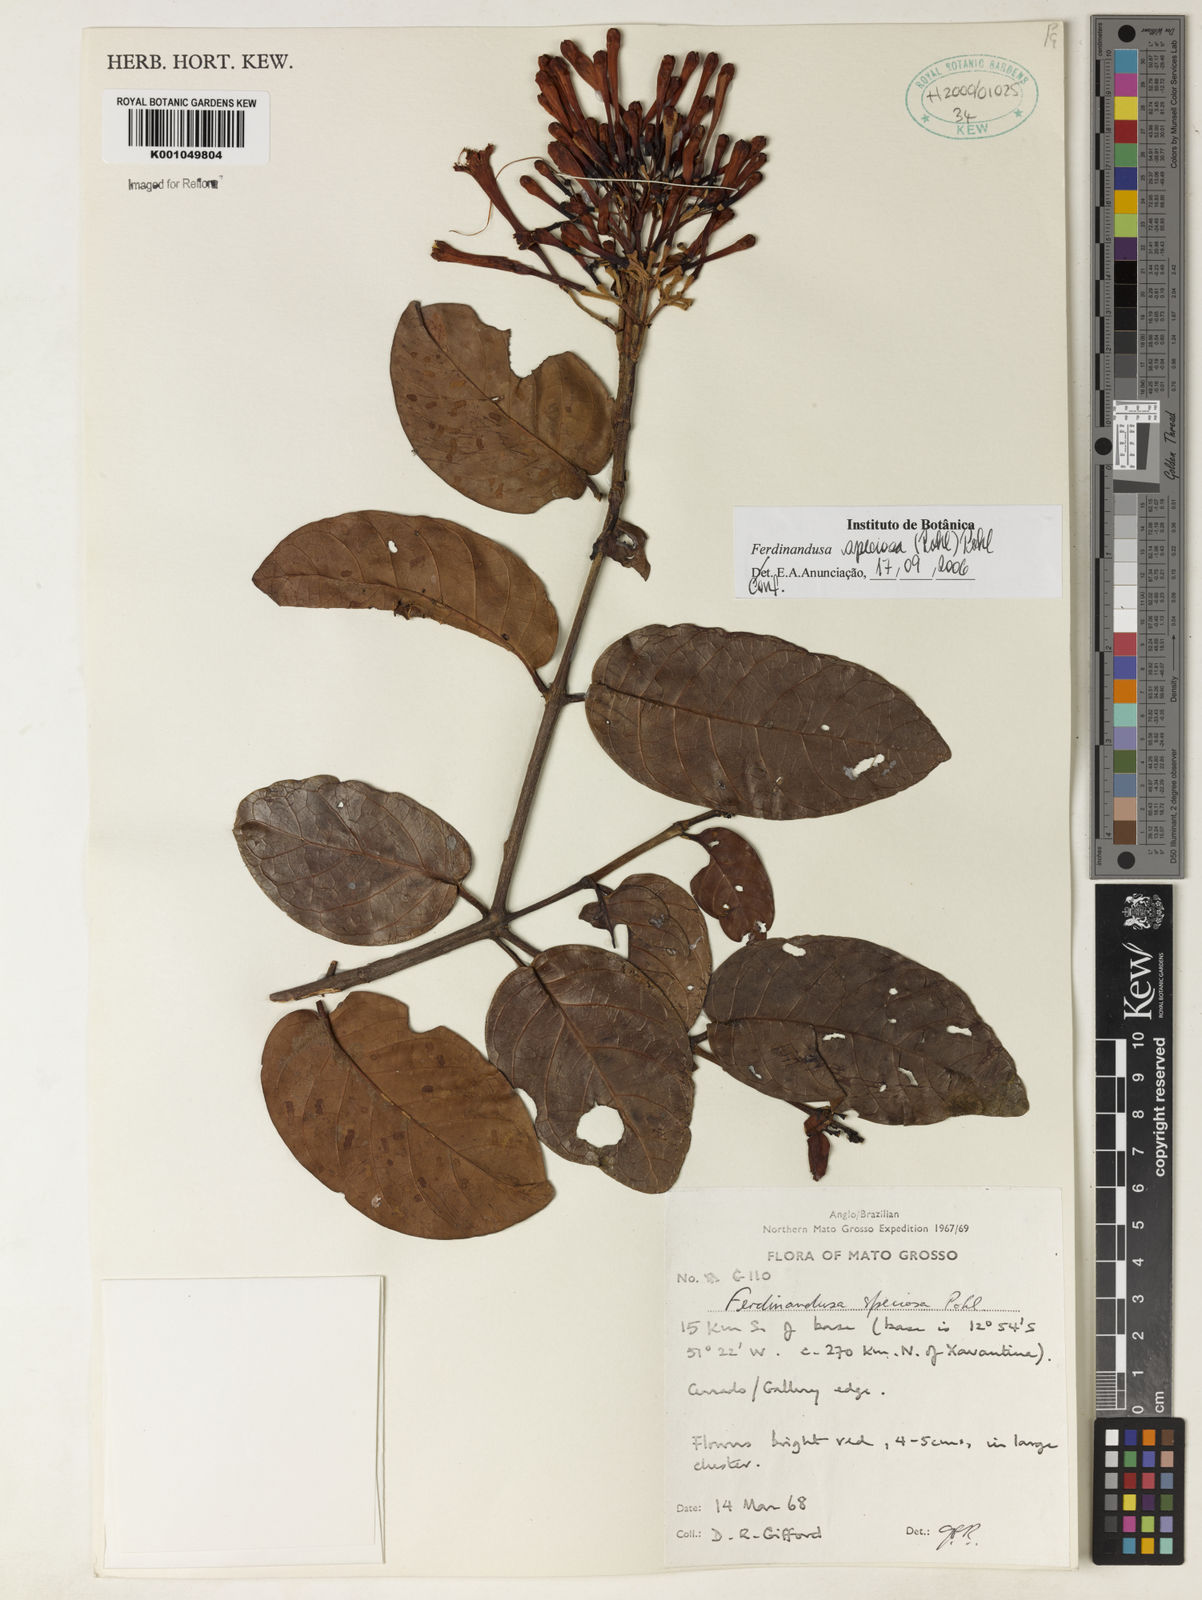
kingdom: Plantae
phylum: Tracheophyta
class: Magnoliopsida
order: Gentianales
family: Rubiaceae
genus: Ferdinandusa
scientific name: Ferdinandusa speciosa
